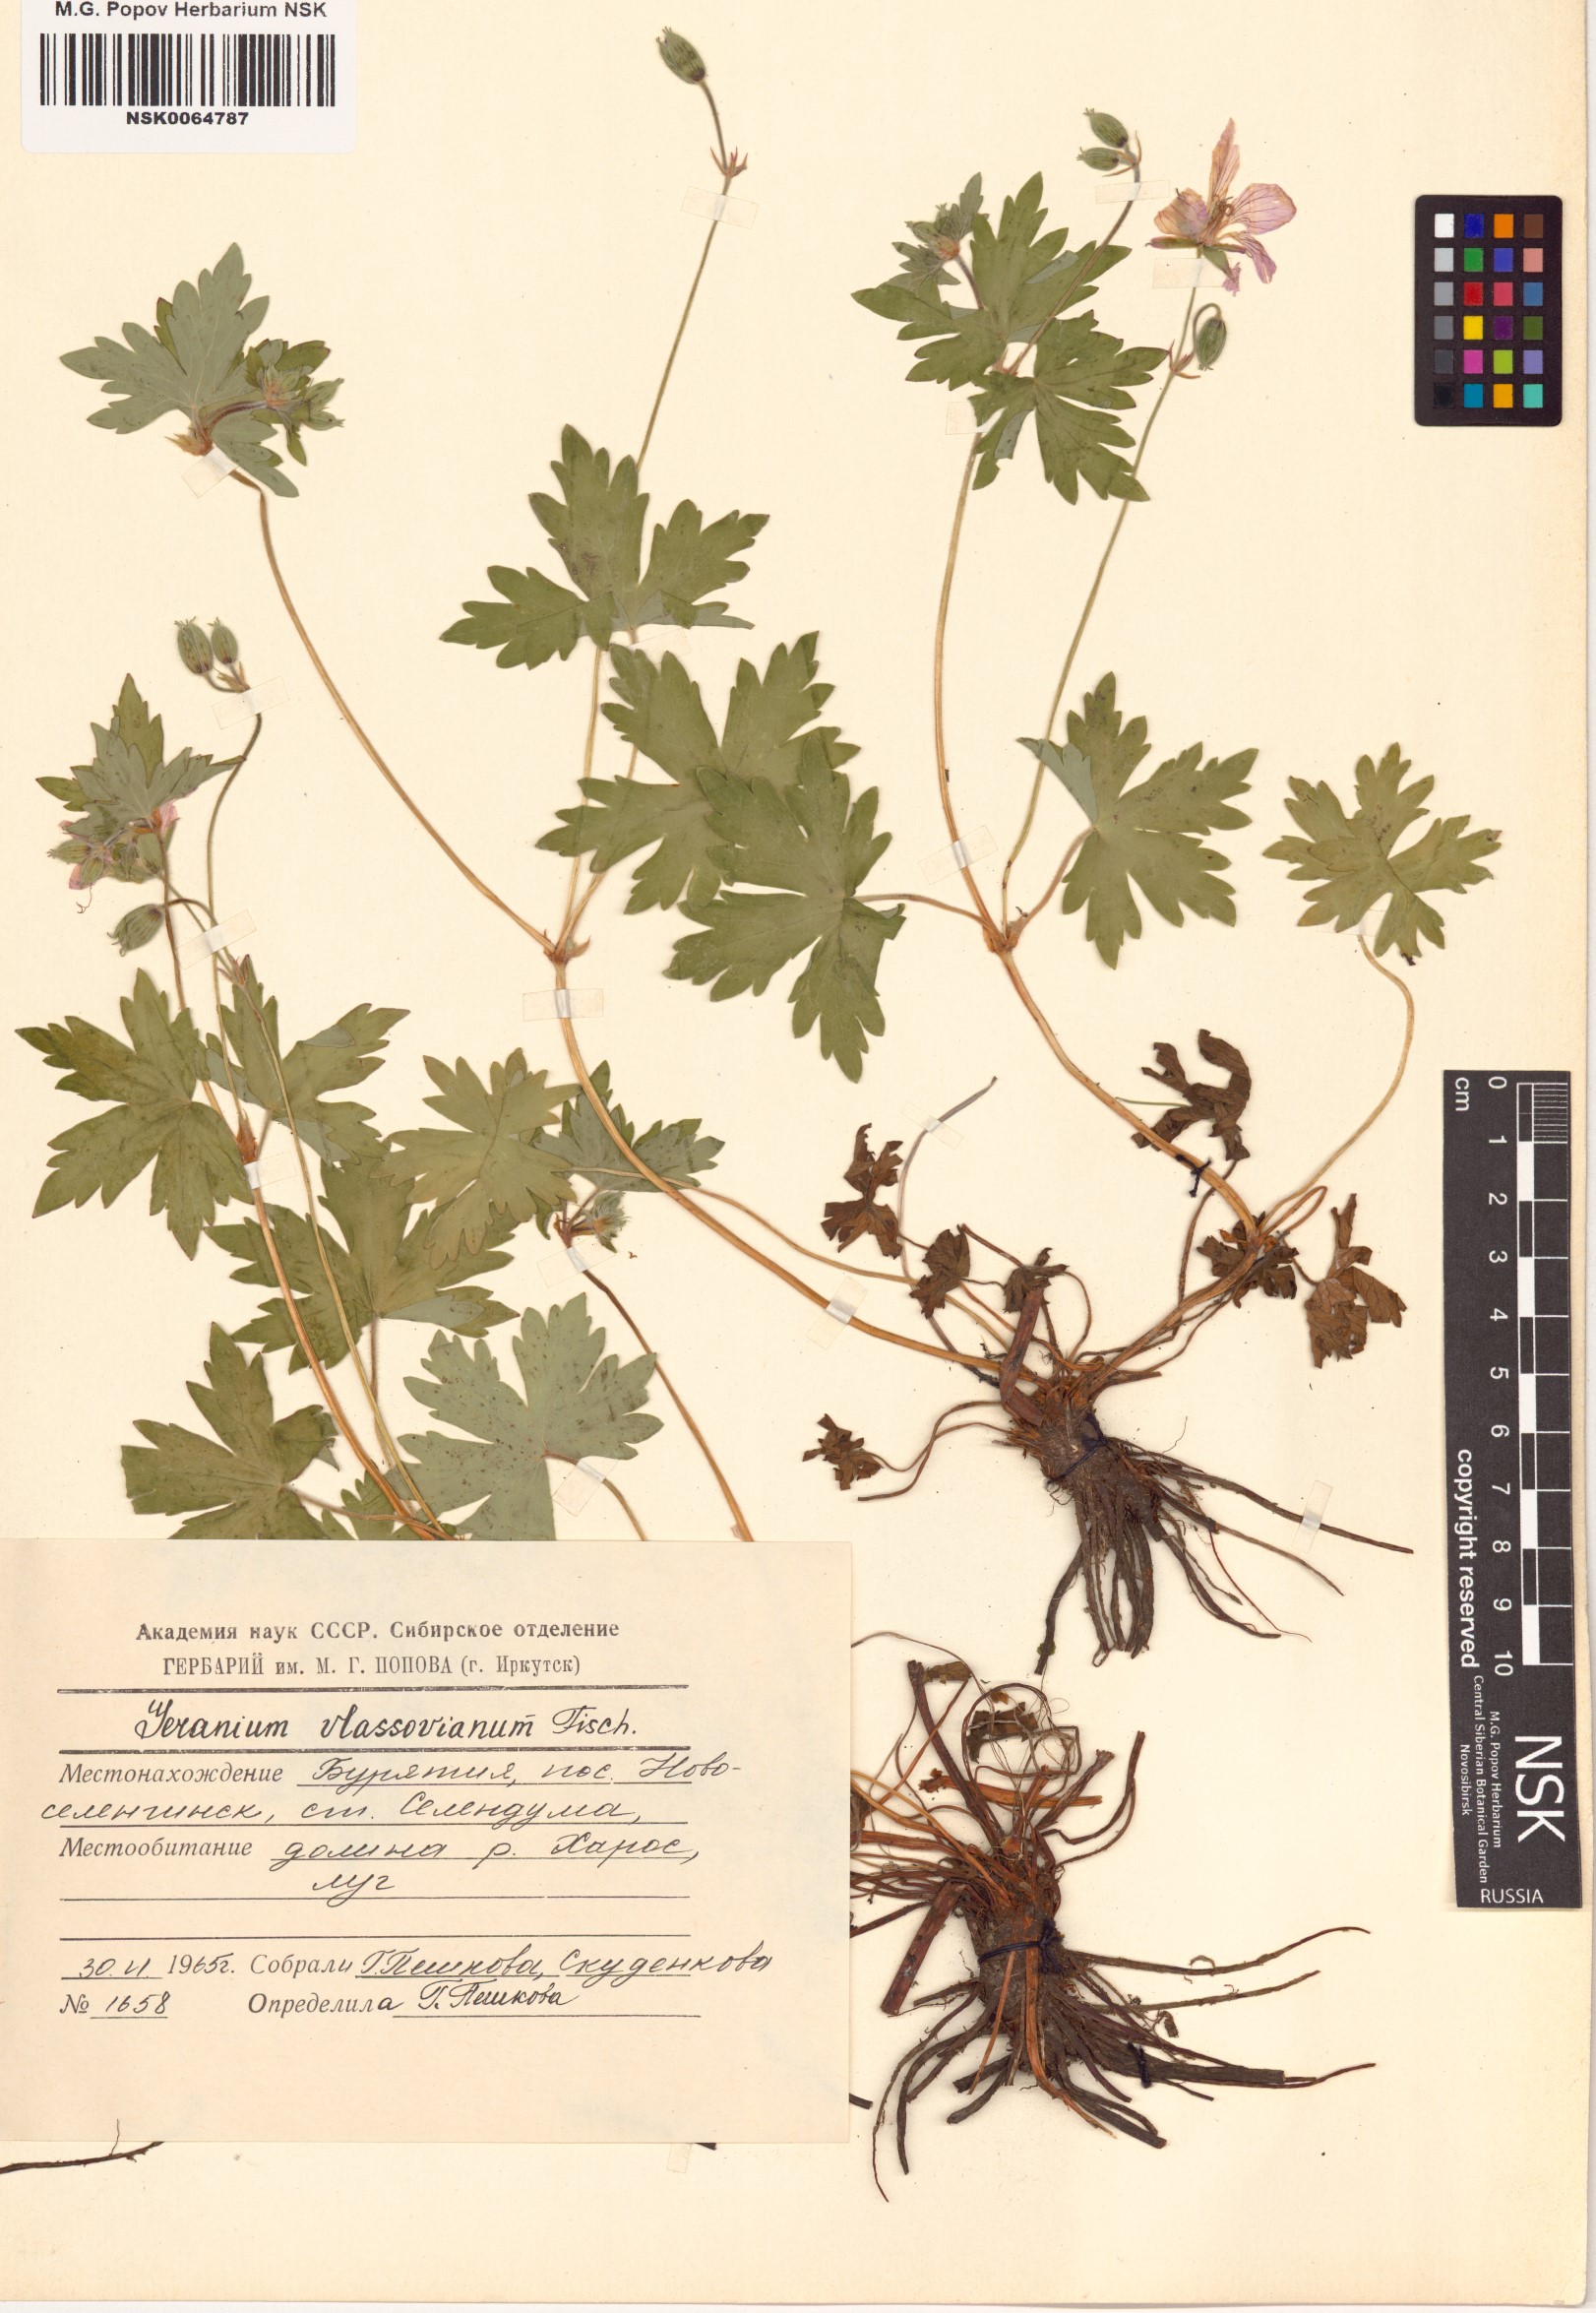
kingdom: Plantae
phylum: Tracheophyta
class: Magnoliopsida
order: Geraniales
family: Geraniaceae
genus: Geranium
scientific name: Geranium wlassovianum
